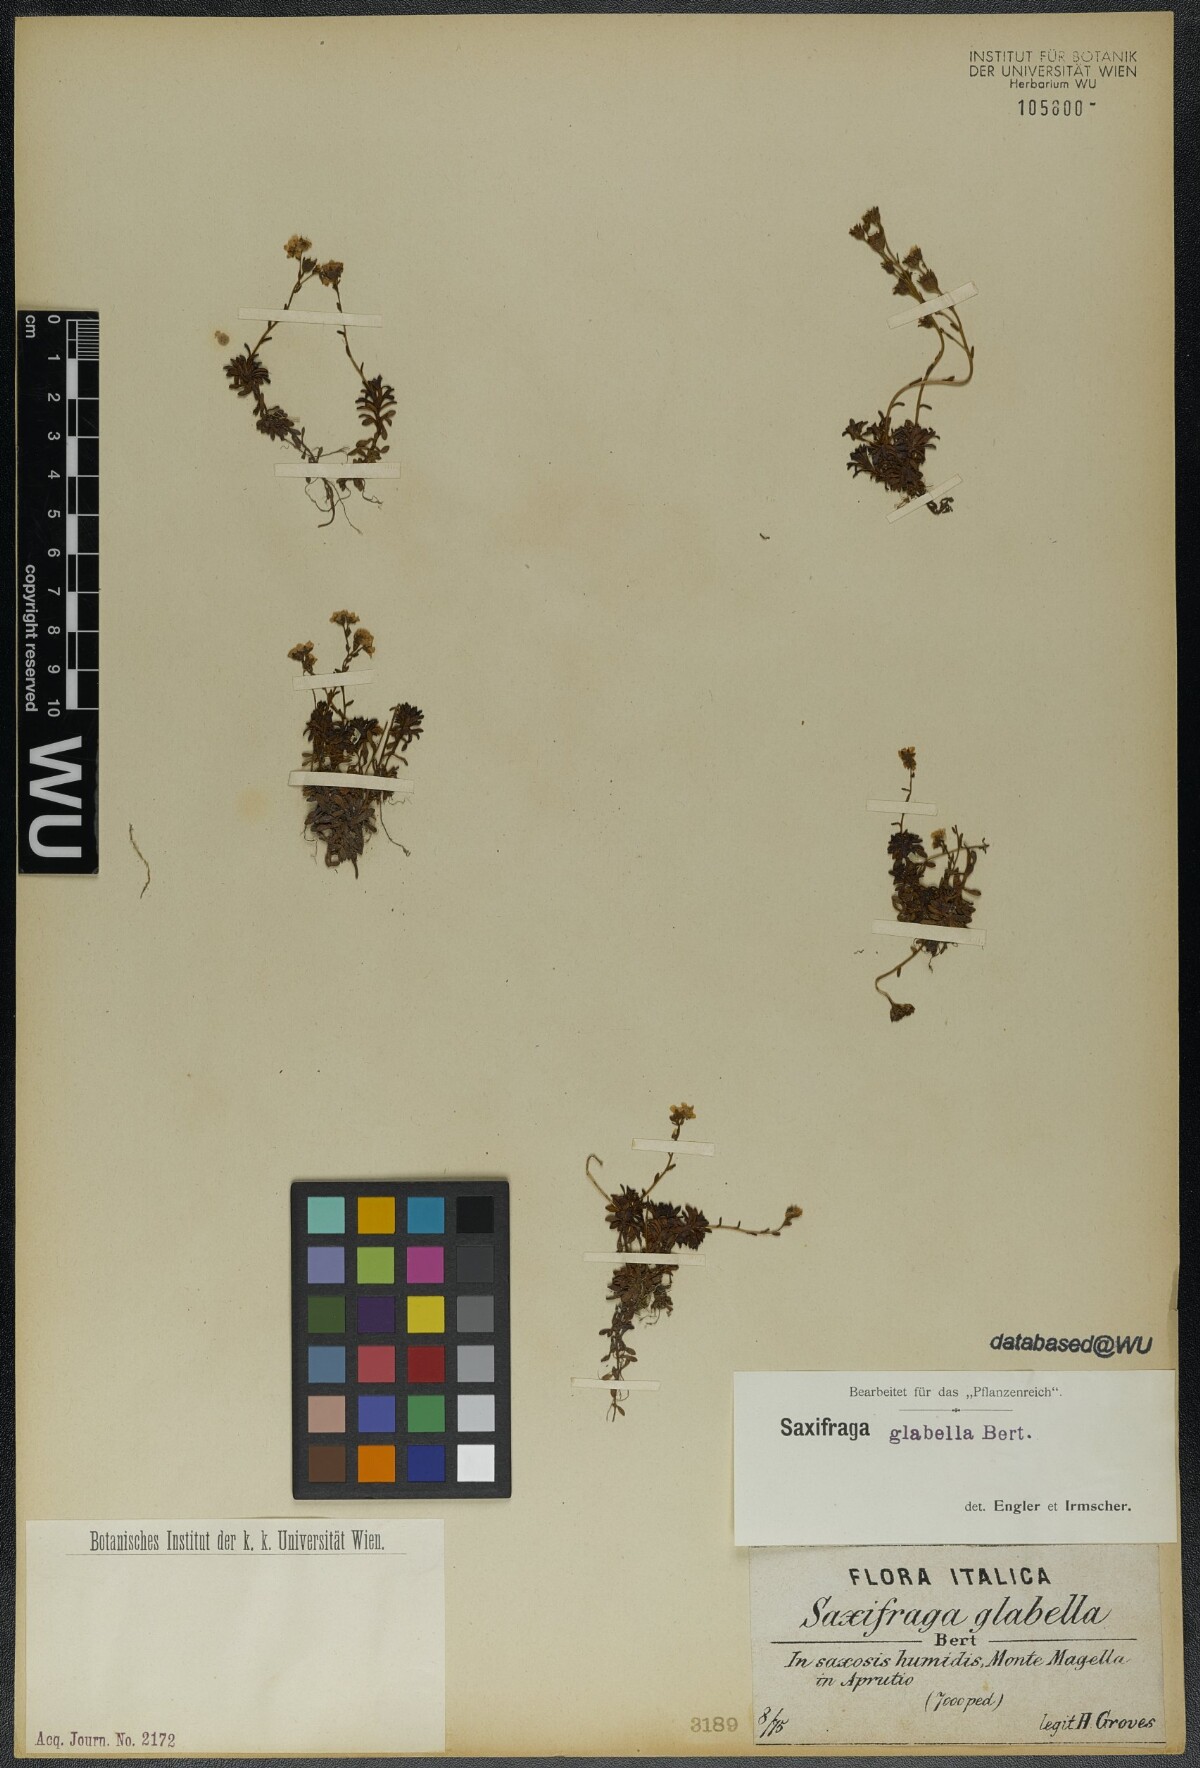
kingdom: Plantae
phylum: Tracheophyta
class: Magnoliopsida
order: Saxifragales
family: Saxifragaceae
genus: Saxifraga
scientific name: Saxifraga glabella
